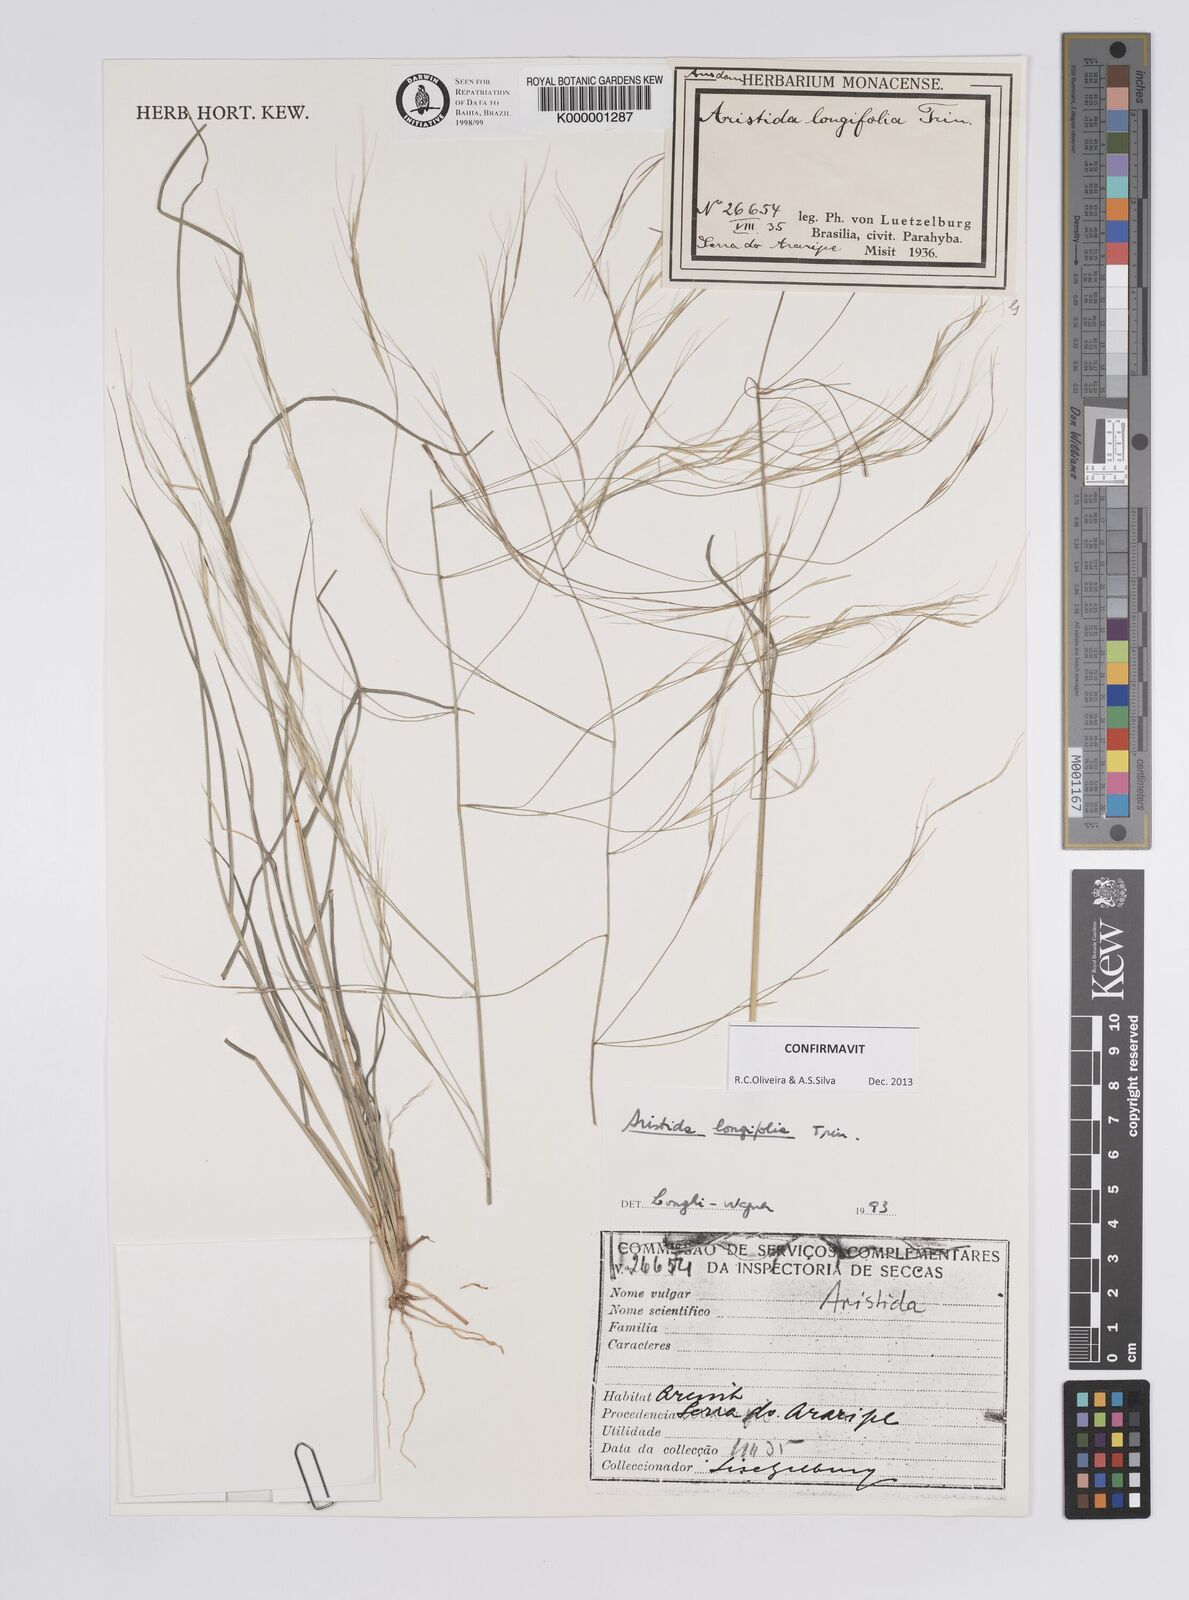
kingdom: Plantae
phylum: Tracheophyta
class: Liliopsida
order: Poales
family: Poaceae
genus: Aristida
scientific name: Aristida longifolia
